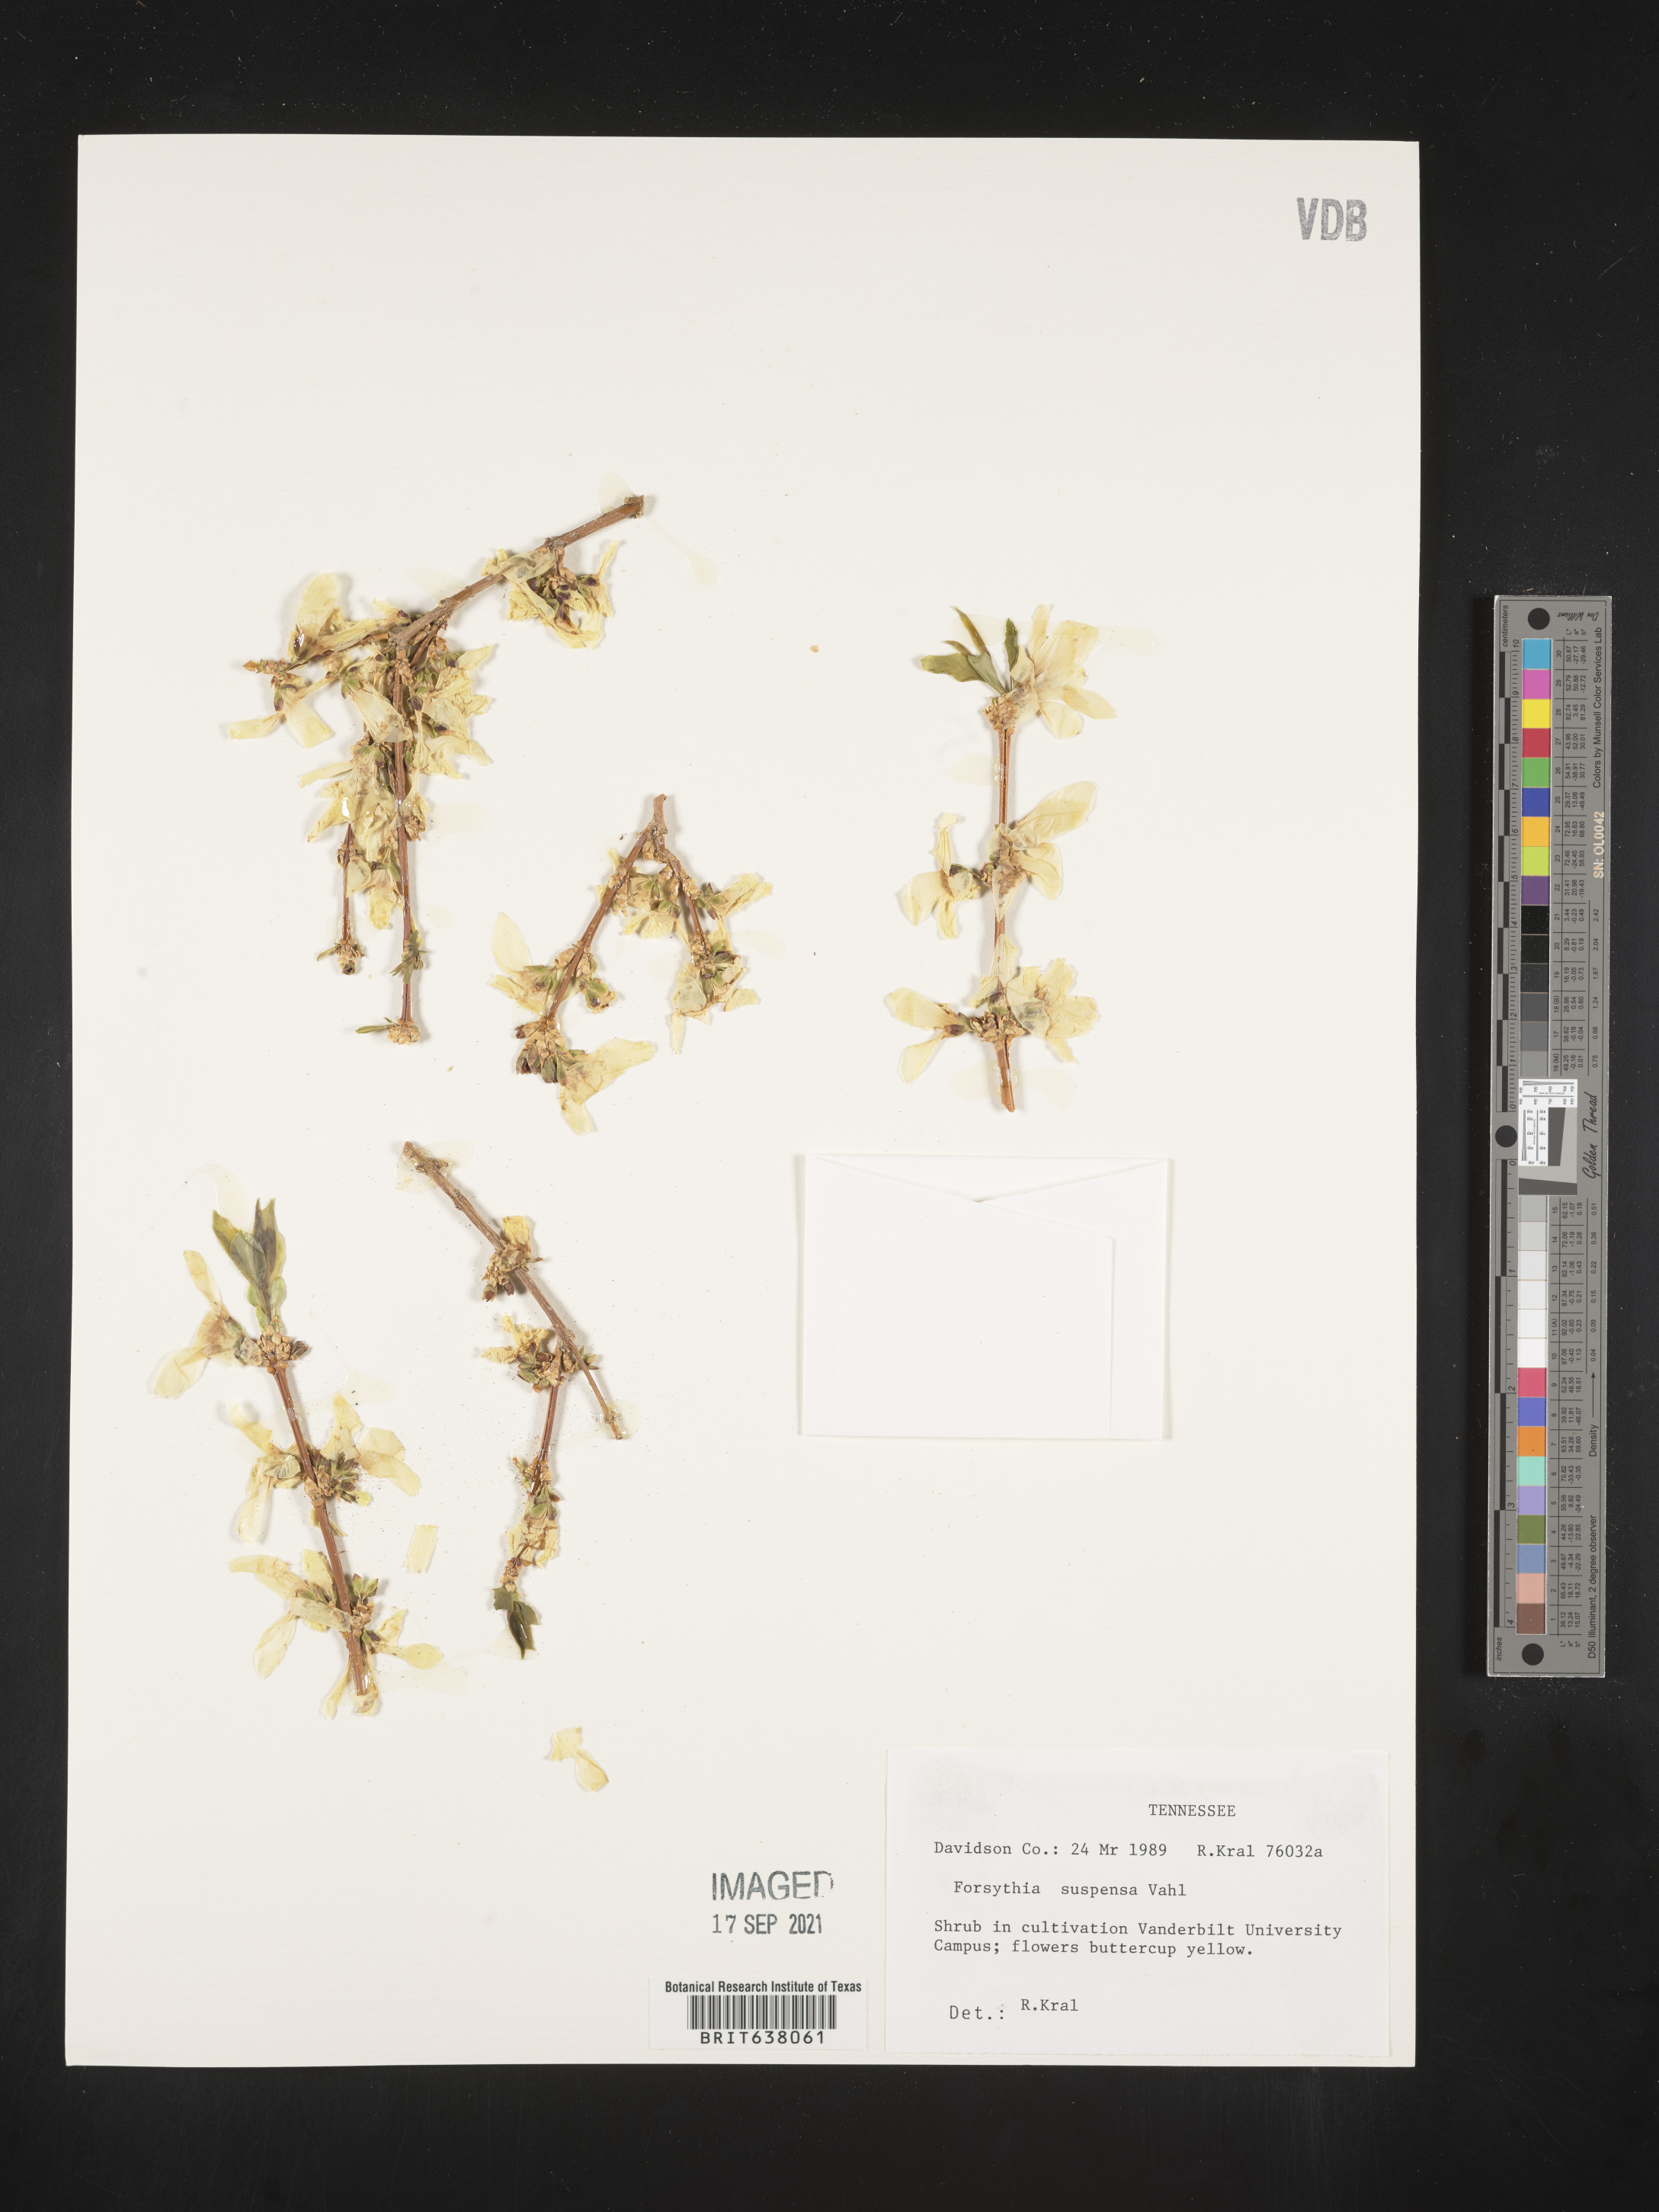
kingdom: Plantae
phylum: Tracheophyta
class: Magnoliopsida
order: Lamiales
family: Oleaceae
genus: Forsythia
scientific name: Forsythia
